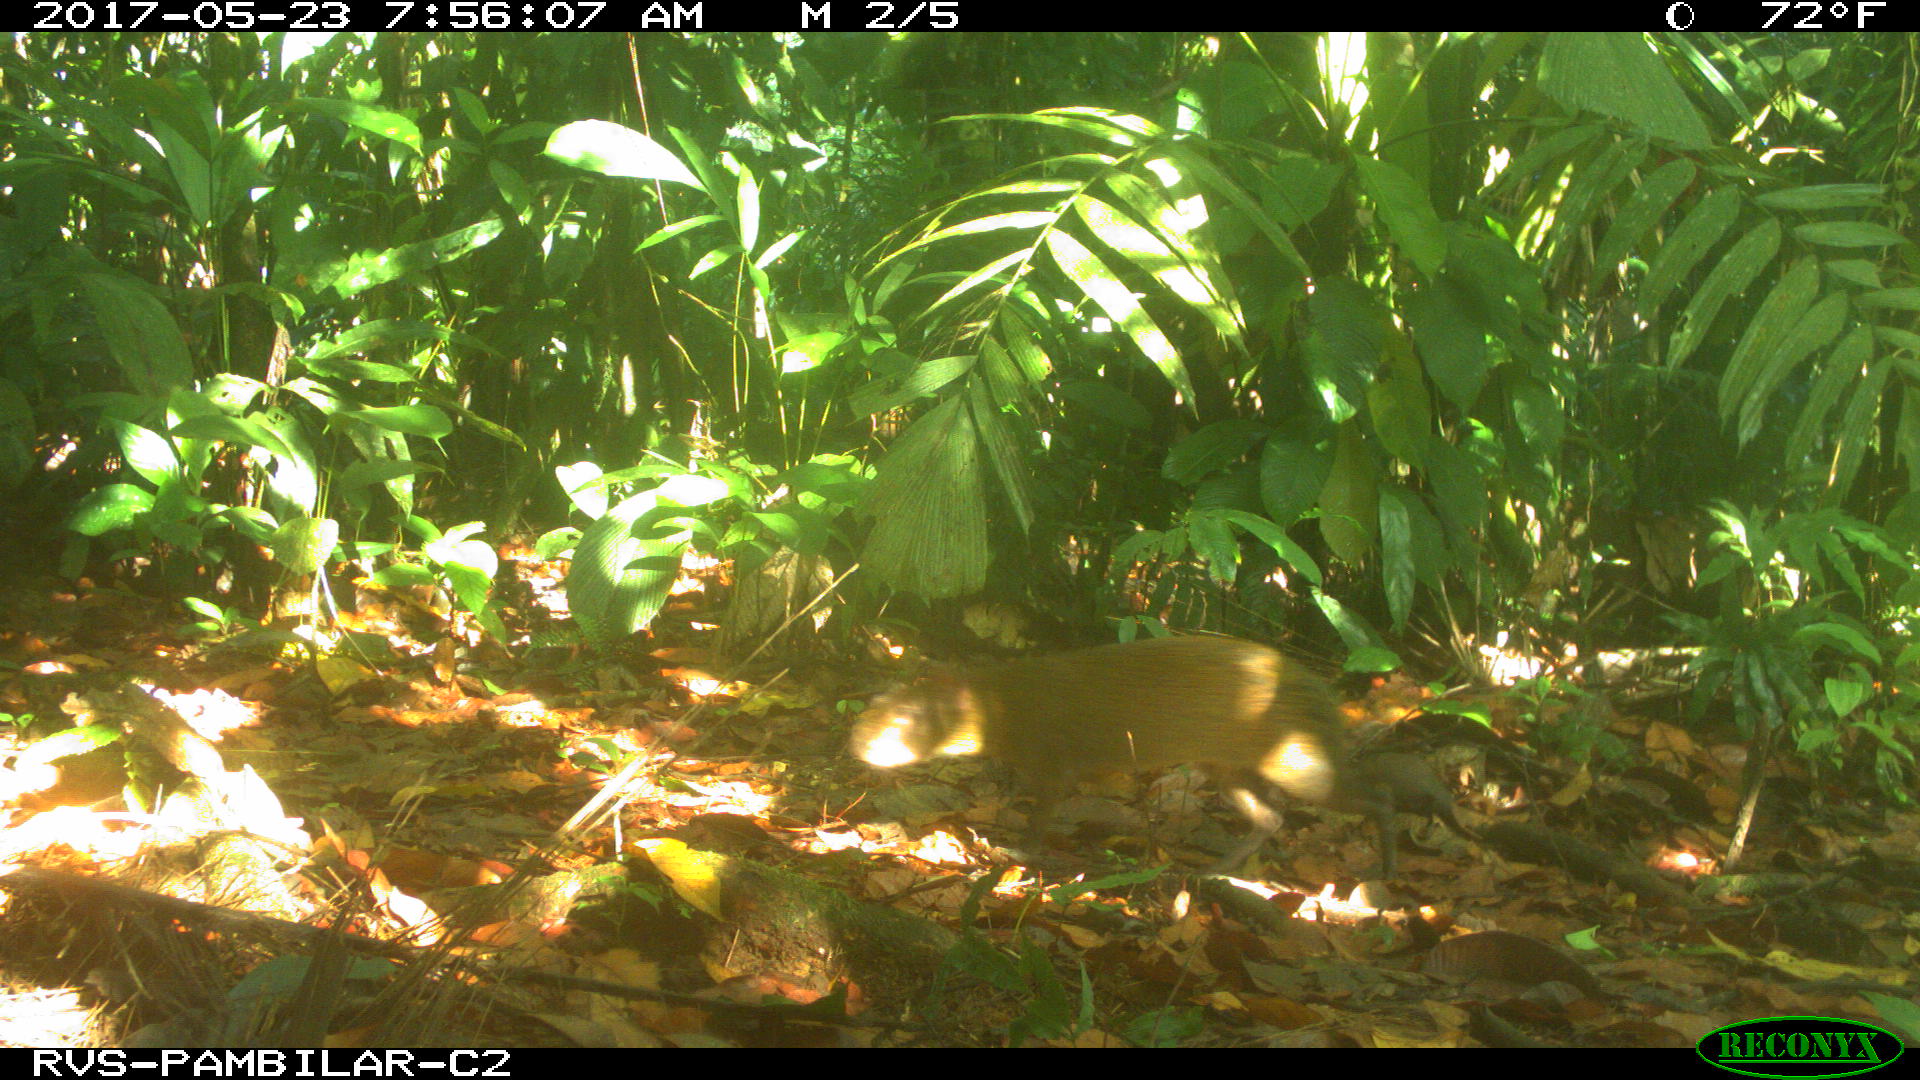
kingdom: Animalia
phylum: Chordata
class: Mammalia
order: Rodentia
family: Dasyproctidae
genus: Dasyprocta
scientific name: Dasyprocta punctata
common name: Central american agouti
